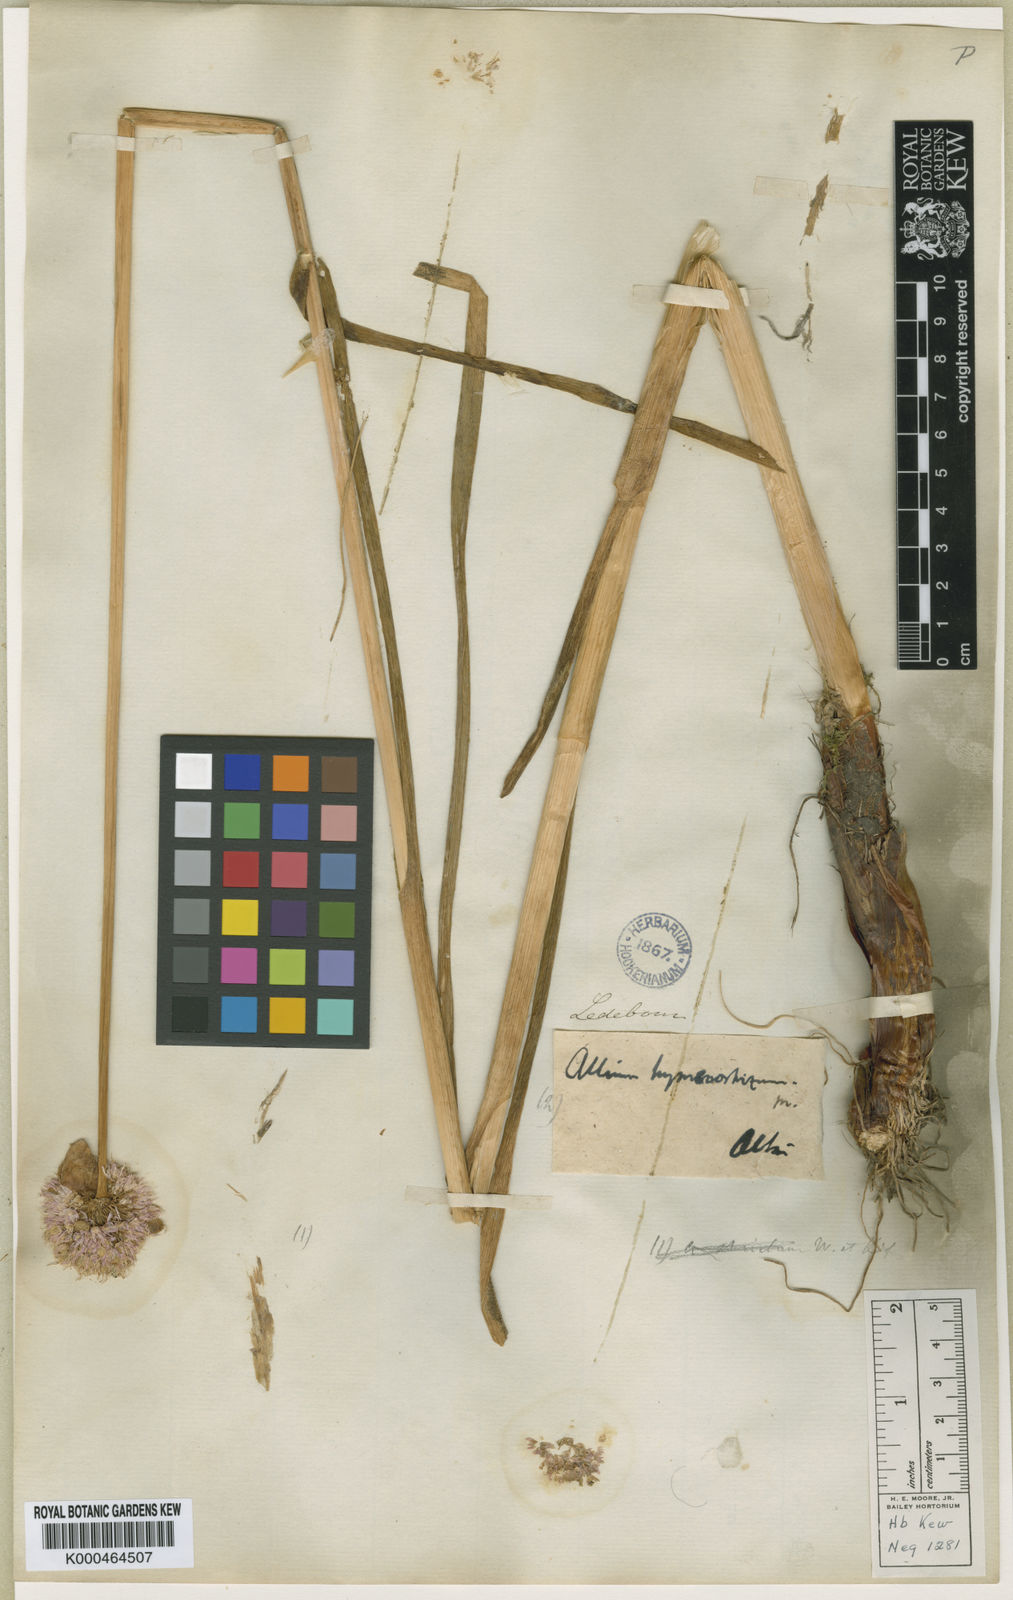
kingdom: Plantae
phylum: Tracheophyta
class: Liliopsida
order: Asparagales
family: Amaryllidaceae
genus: Allium
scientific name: Allium hymenorhizum
